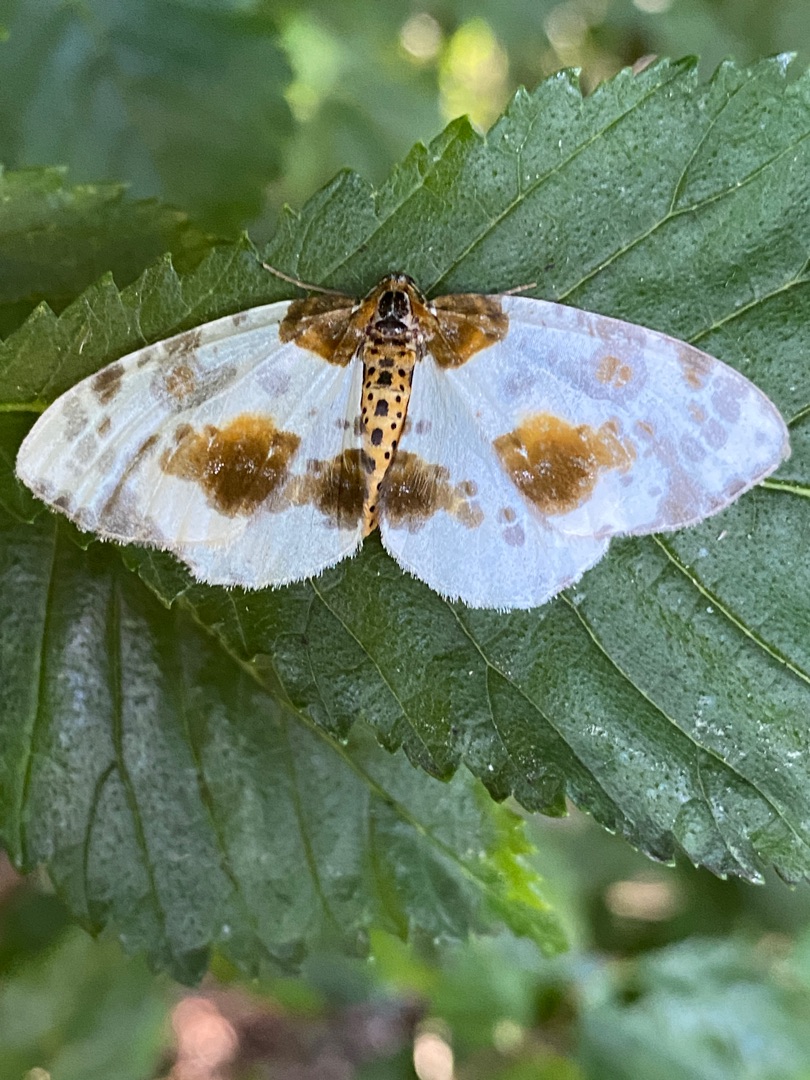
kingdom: Animalia
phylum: Arthropoda
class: Insecta
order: Lepidoptera
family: Geometridae
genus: Abraxas
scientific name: Abraxas sylvata
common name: Elmemåler
